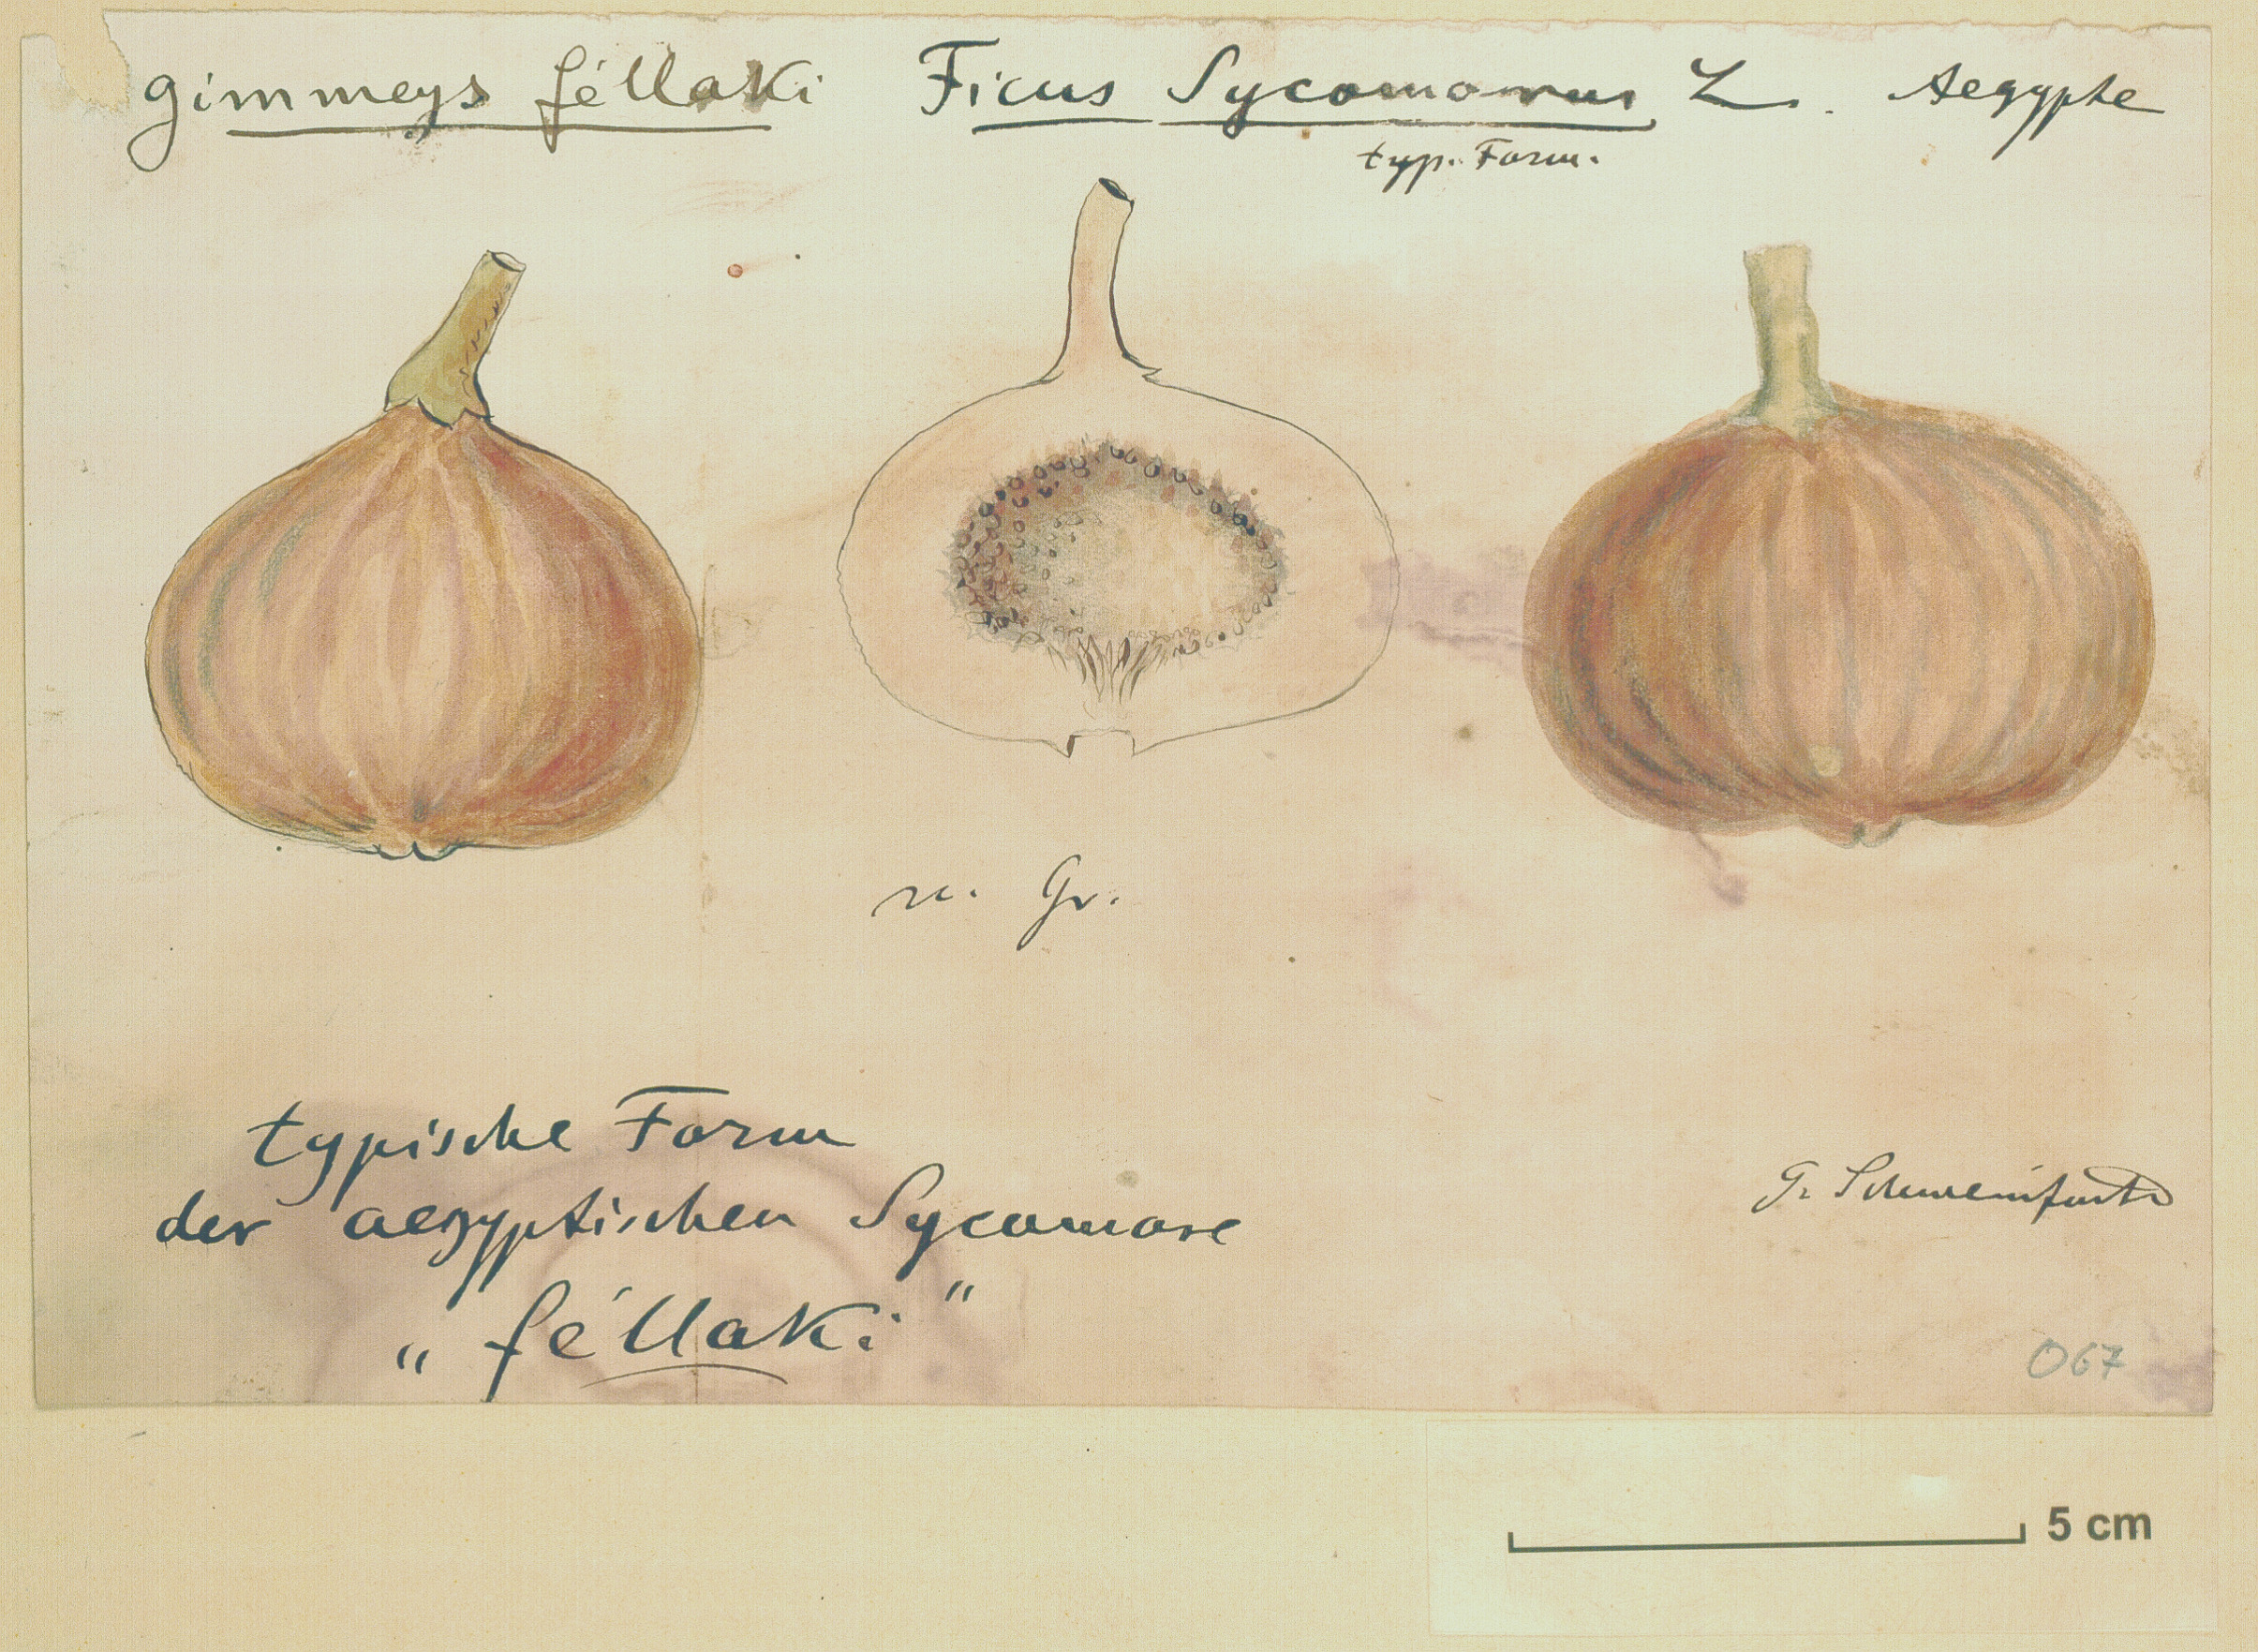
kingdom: Plantae
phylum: Tracheophyta
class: Magnoliopsida
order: Rosales
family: Moraceae
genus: Ficus
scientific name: Ficus sycomorus
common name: Sycomore
